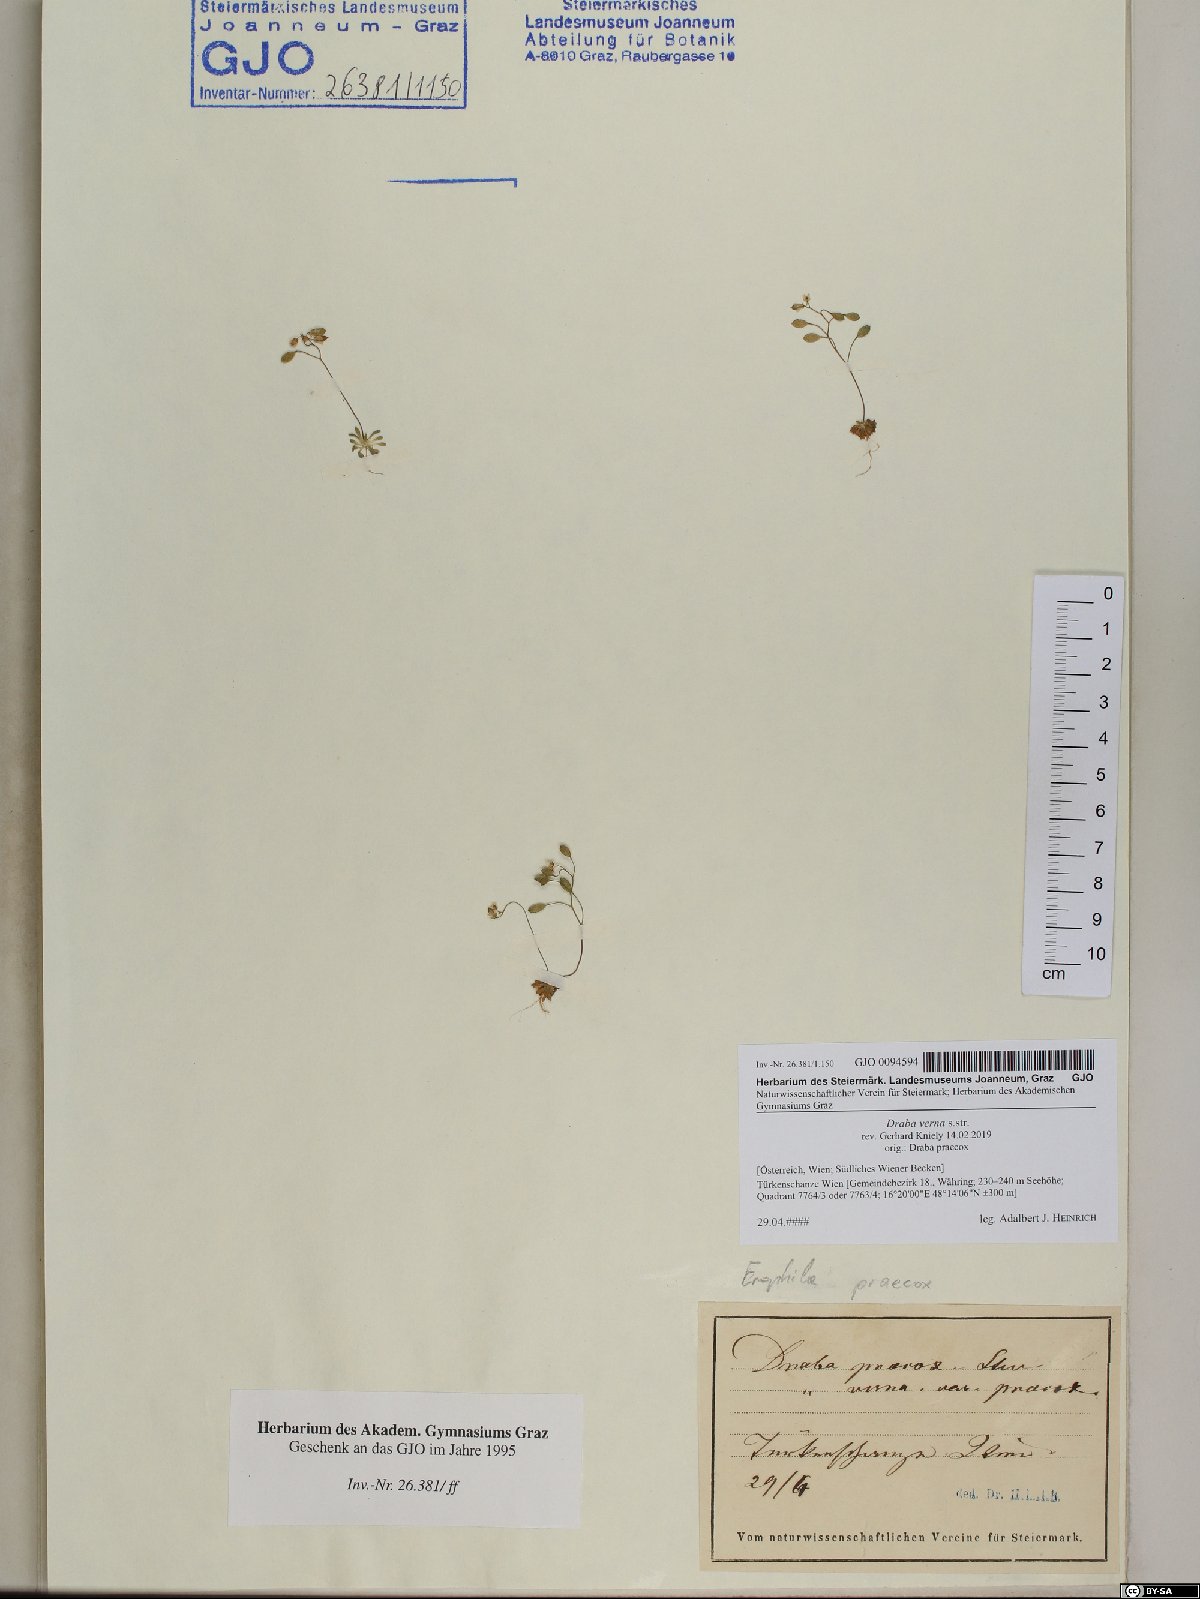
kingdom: Plantae
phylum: Tracheophyta
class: Magnoliopsida
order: Brassicales
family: Brassicaceae
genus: Draba
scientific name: Draba verna
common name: Spring draba
